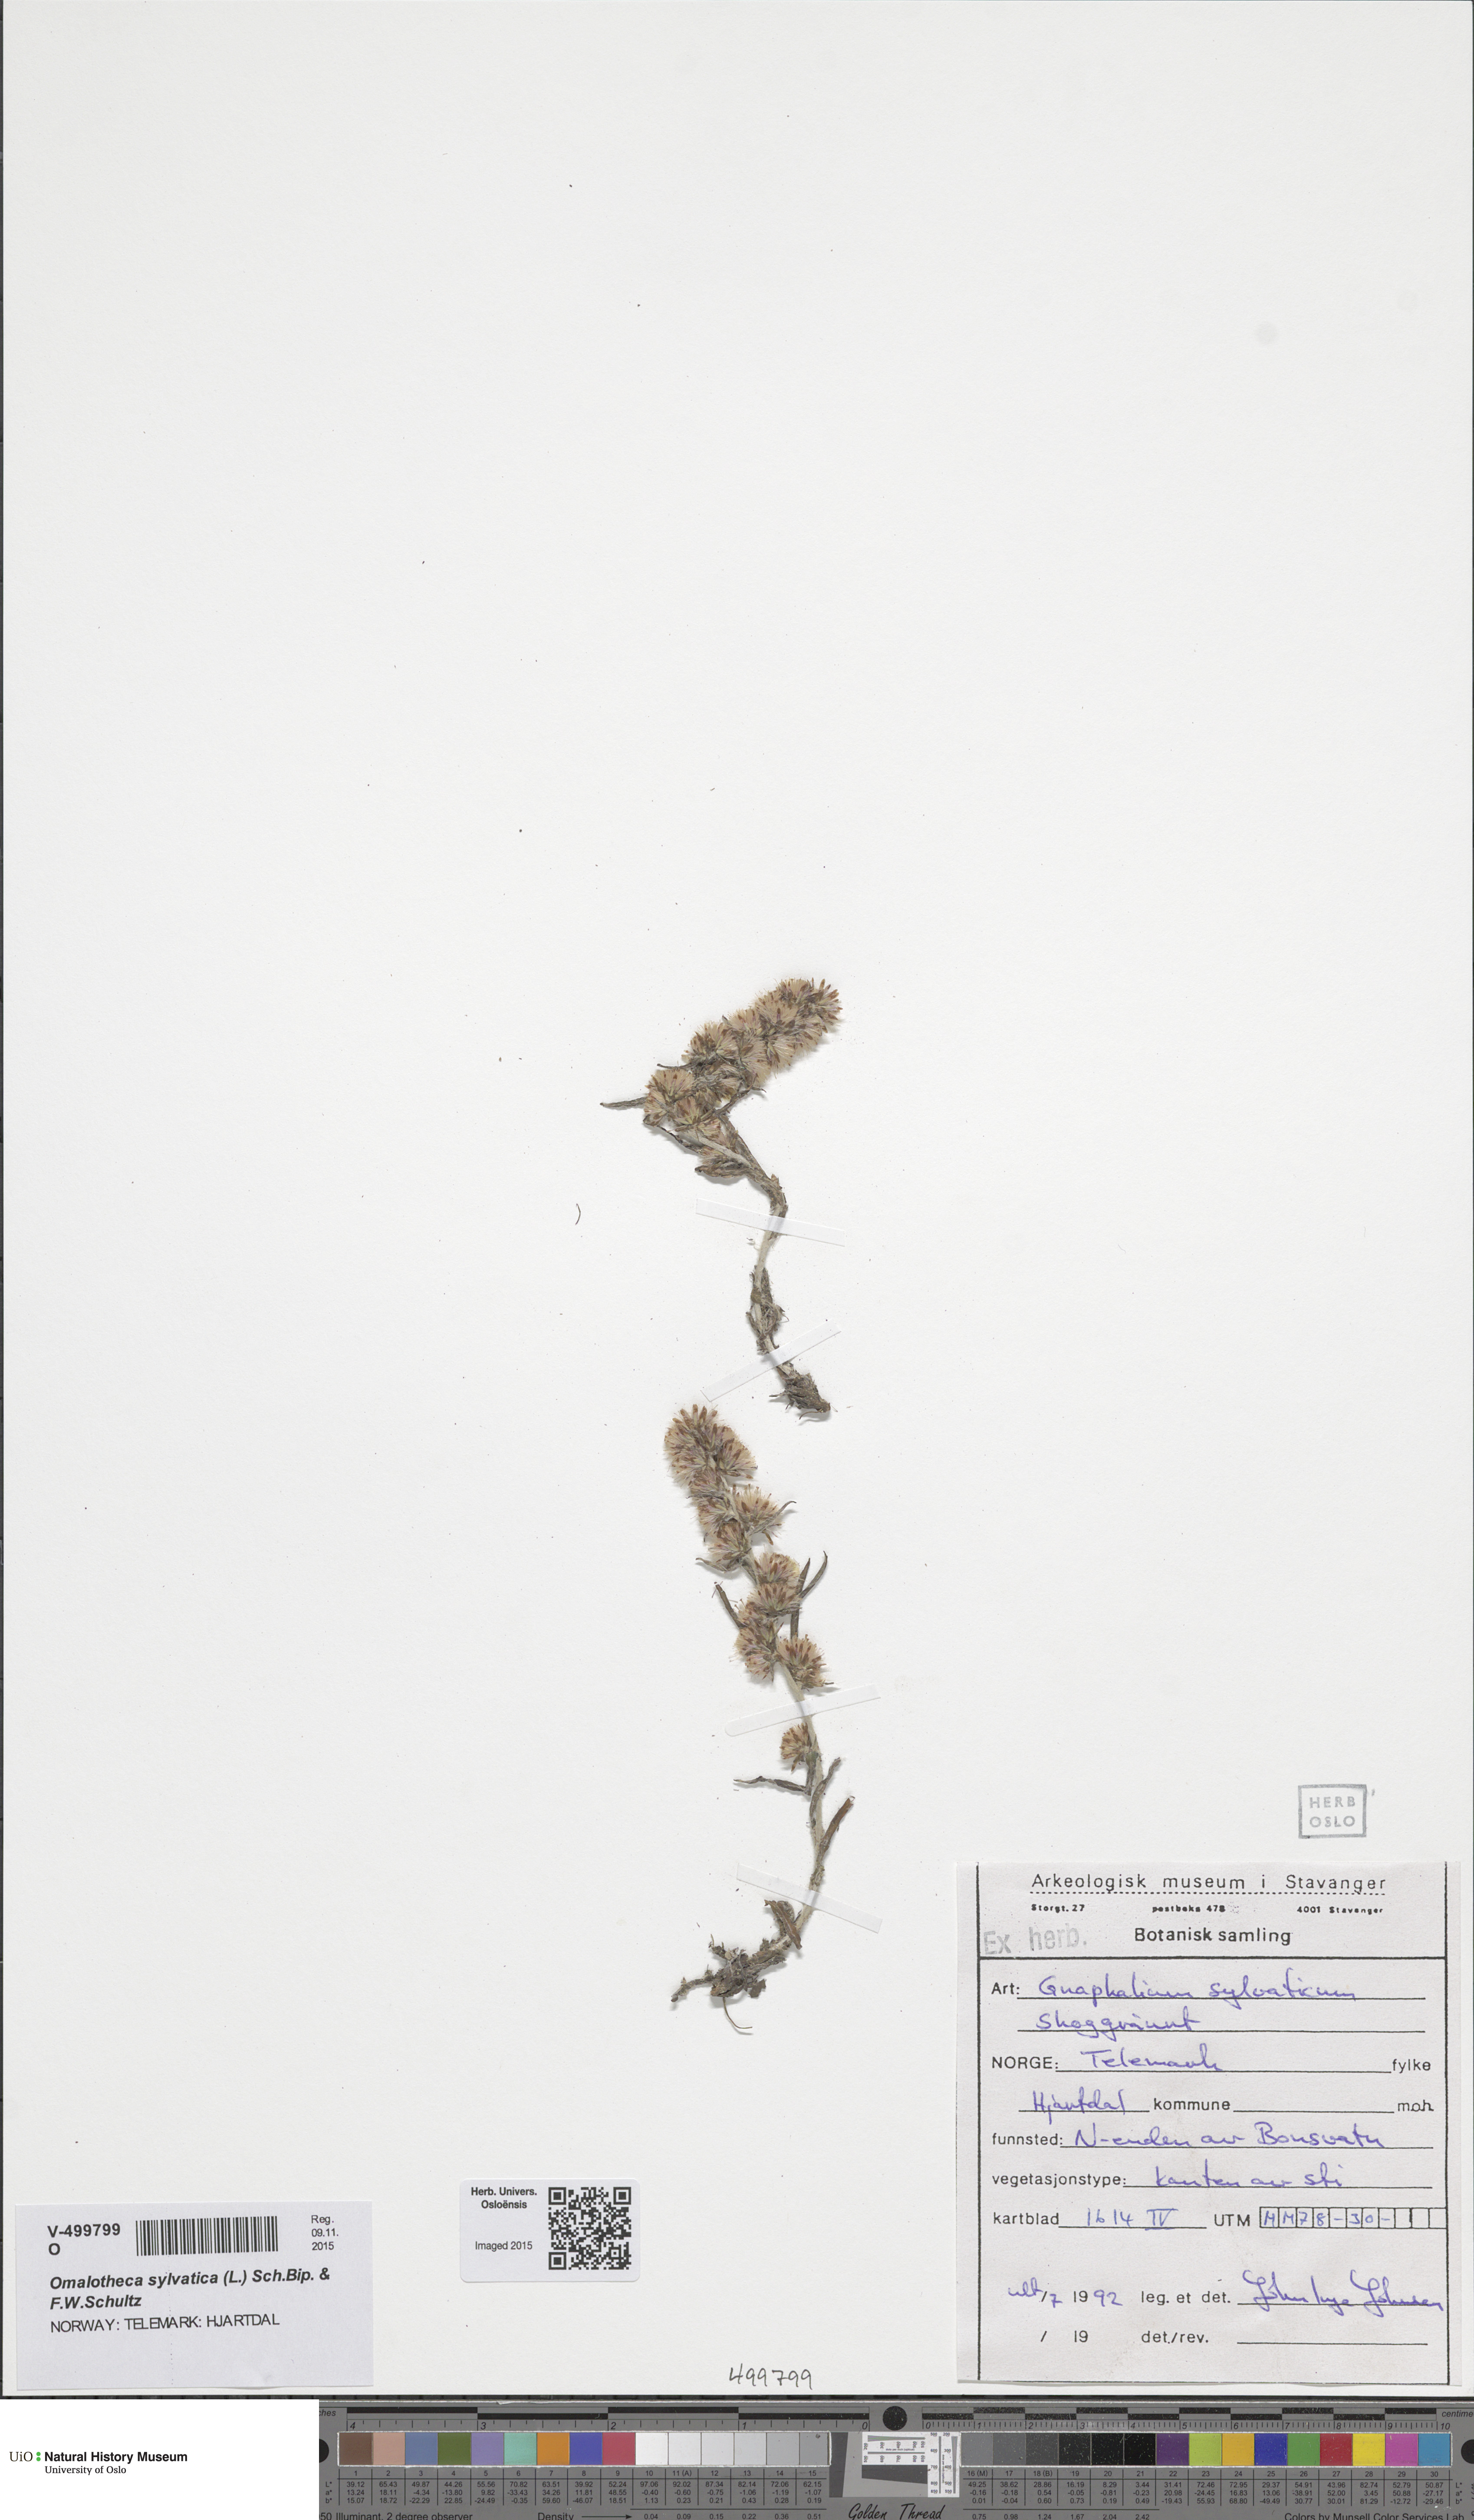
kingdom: Plantae
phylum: Tracheophyta
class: Magnoliopsida
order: Asterales
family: Asteraceae
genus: Omalotheca
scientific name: Omalotheca sylvatica
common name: Heath cudweed
